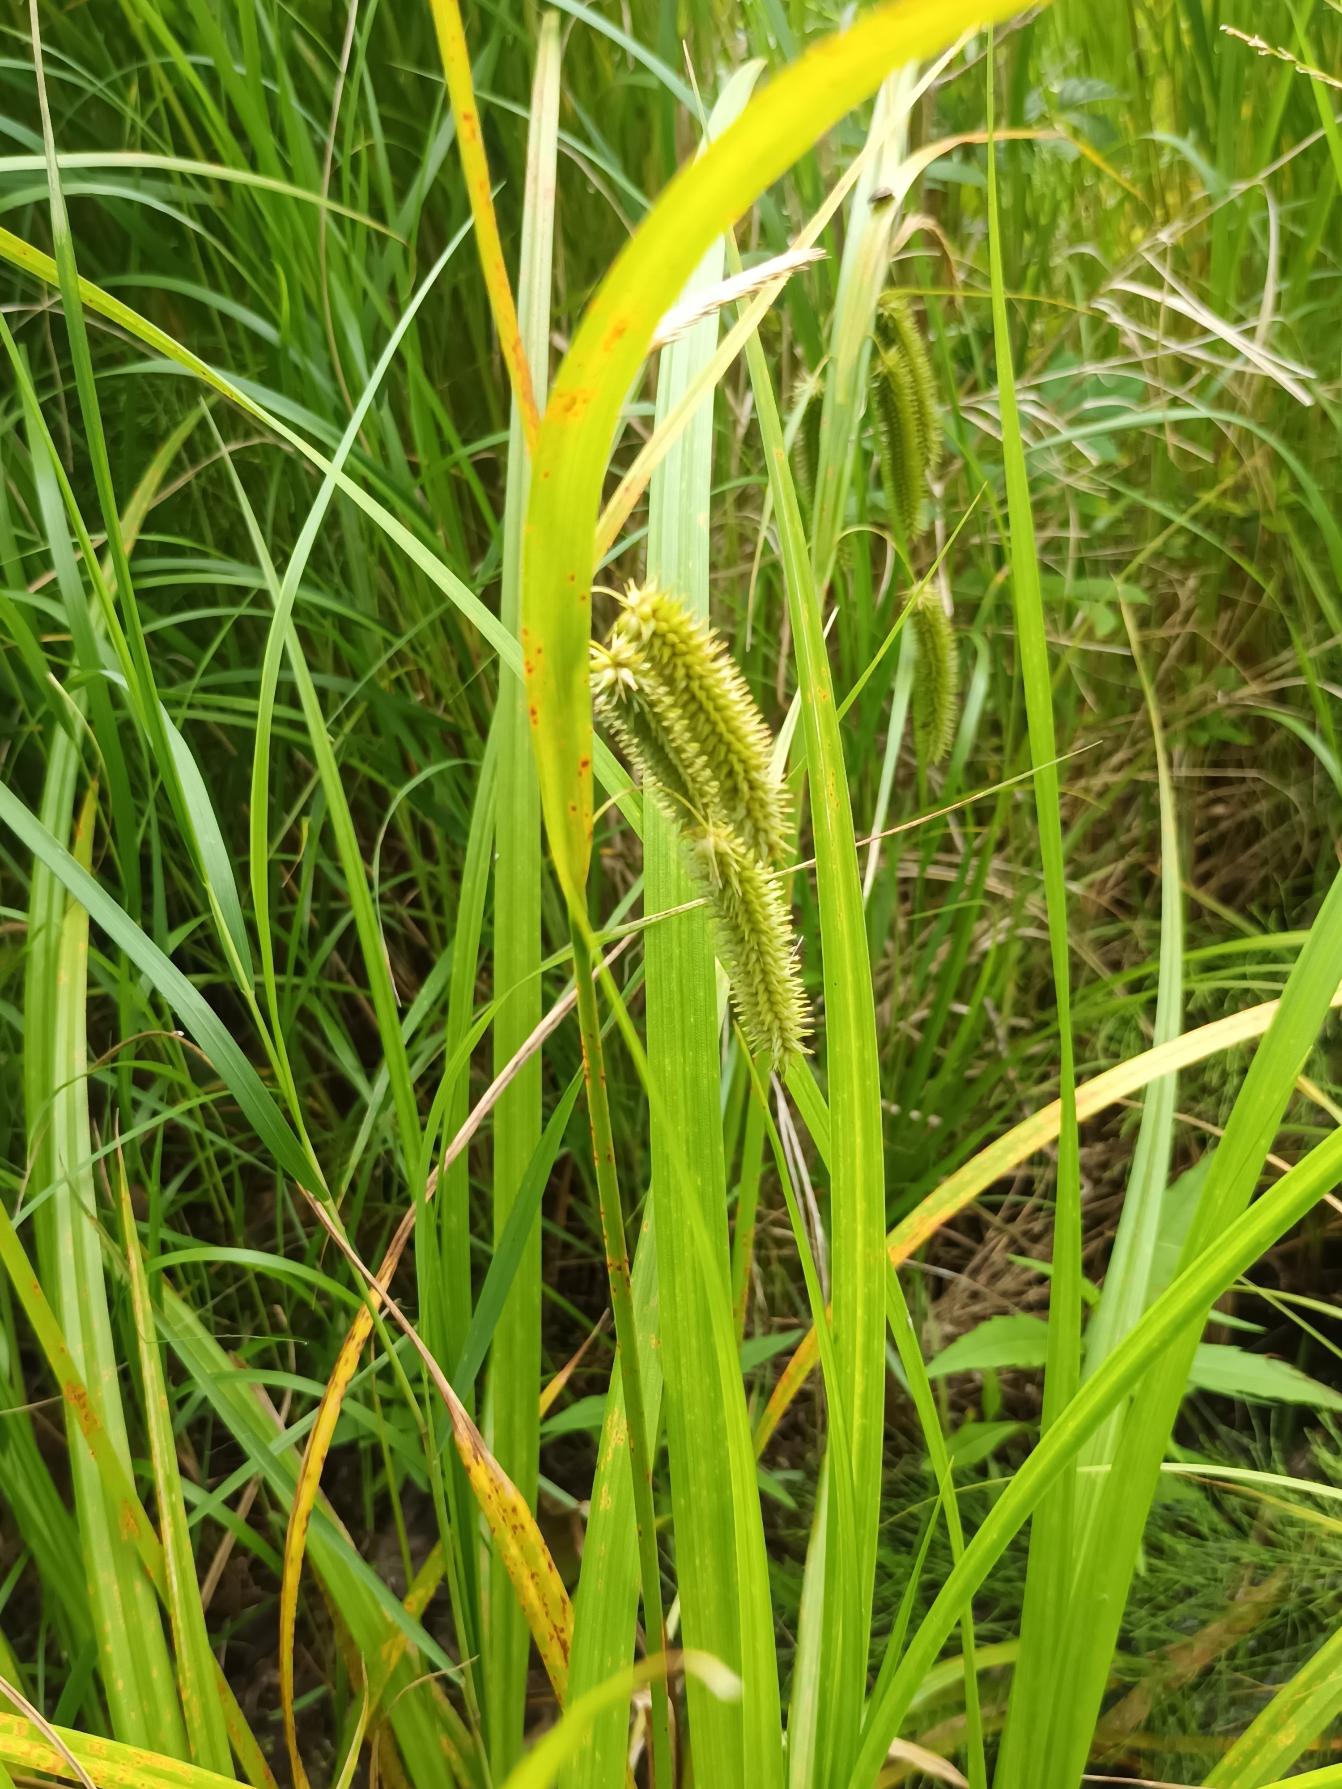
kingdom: Plantae
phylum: Tracheophyta
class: Liliopsida
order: Poales
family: Cyperaceae
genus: Carex
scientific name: Carex pseudocyperus
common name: Knippe-star
